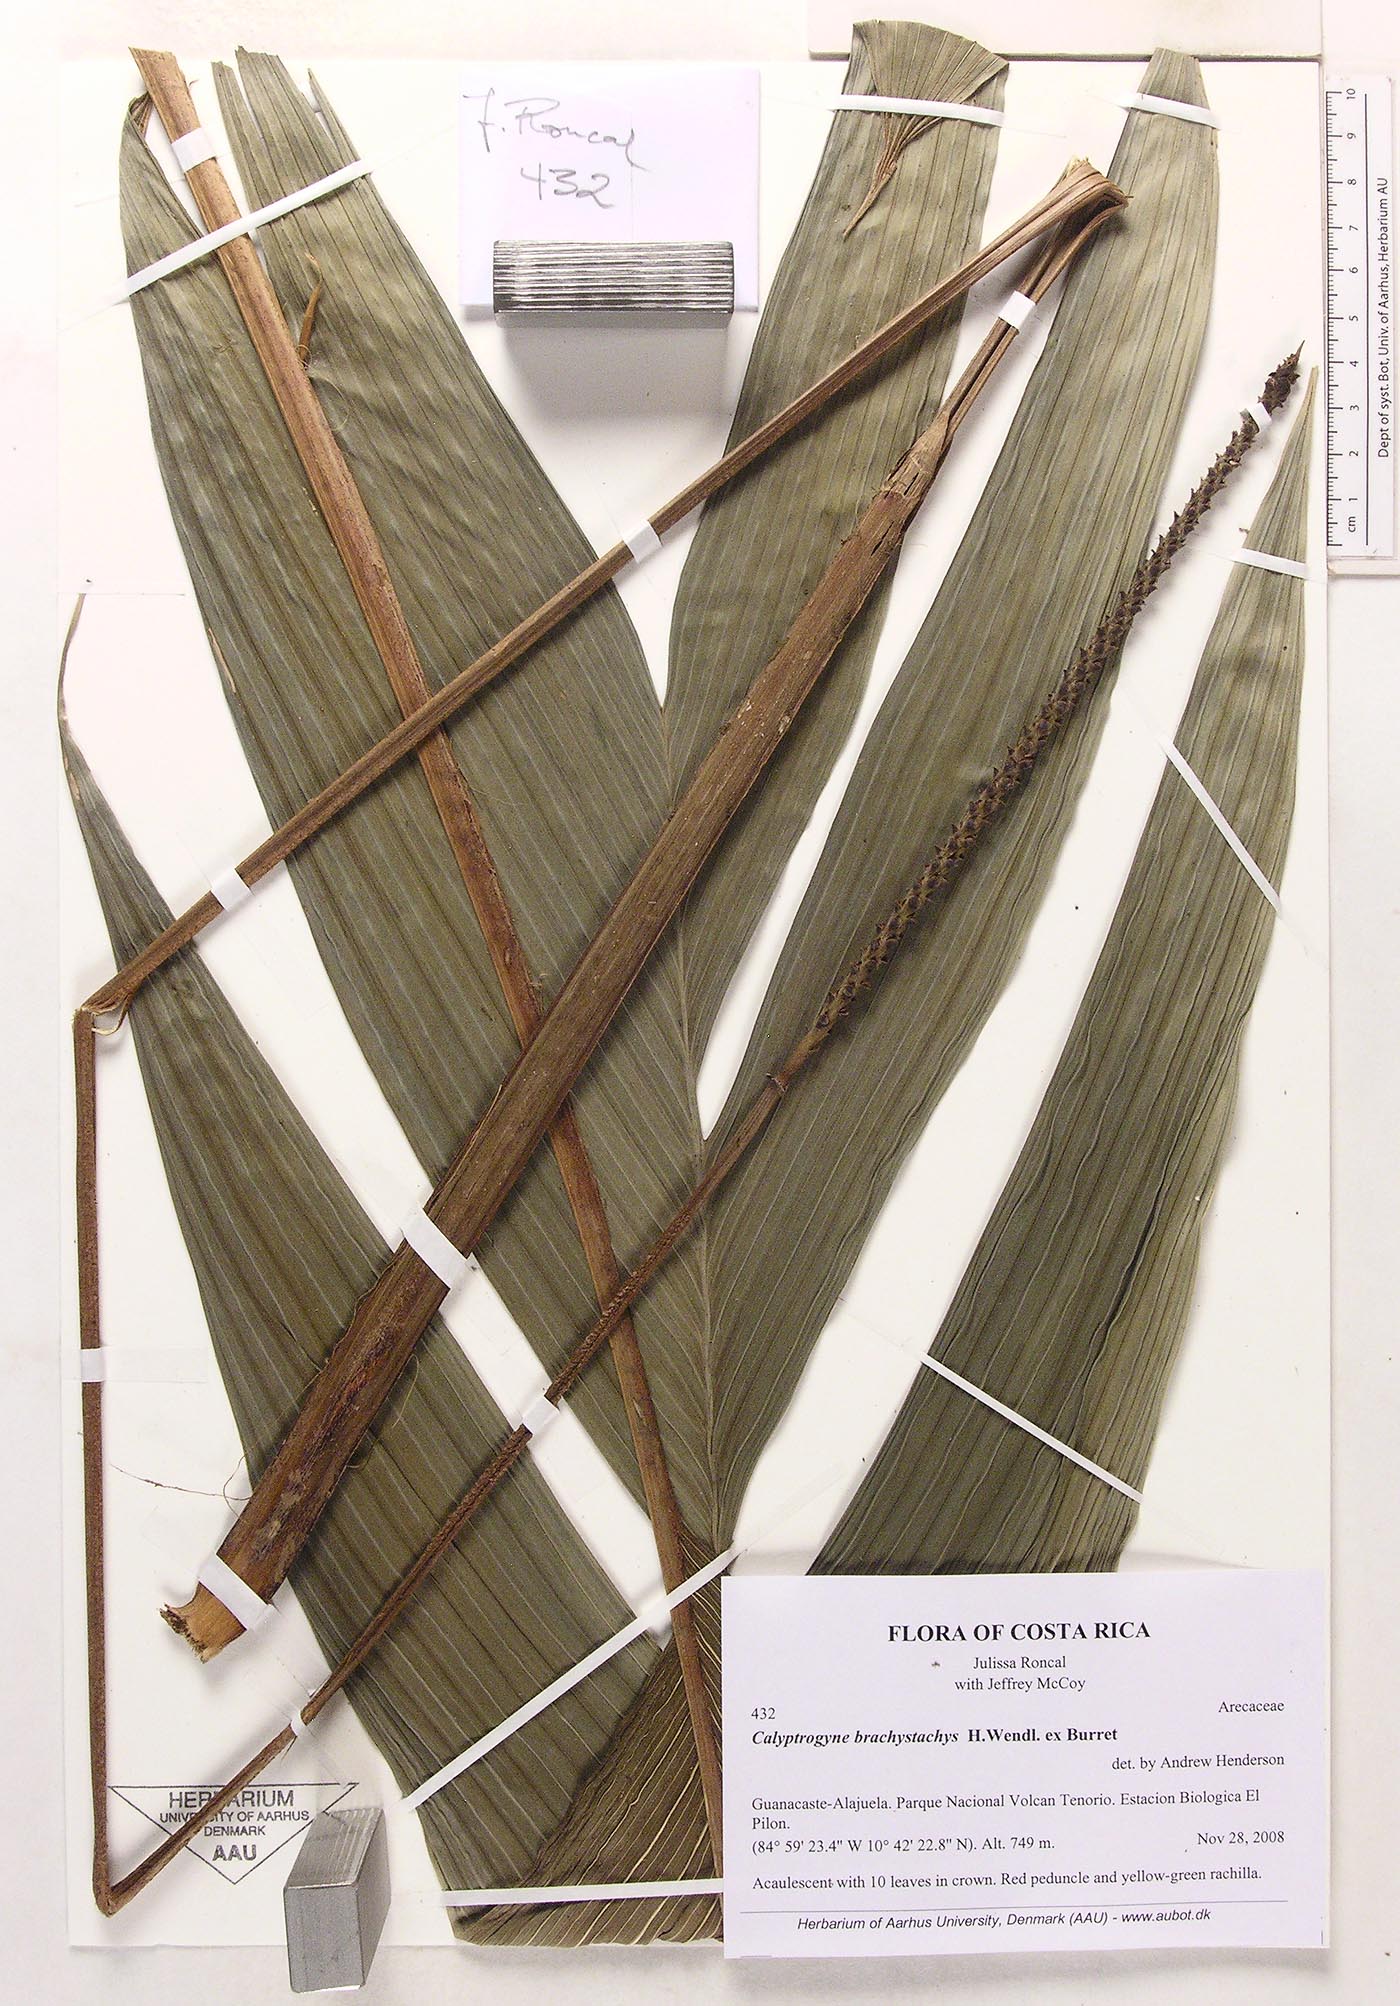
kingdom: Plantae
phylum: Tracheophyta
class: Liliopsida
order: Arecales
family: Arecaceae
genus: Calyptrogyne
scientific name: Calyptrogyne brachystachys
